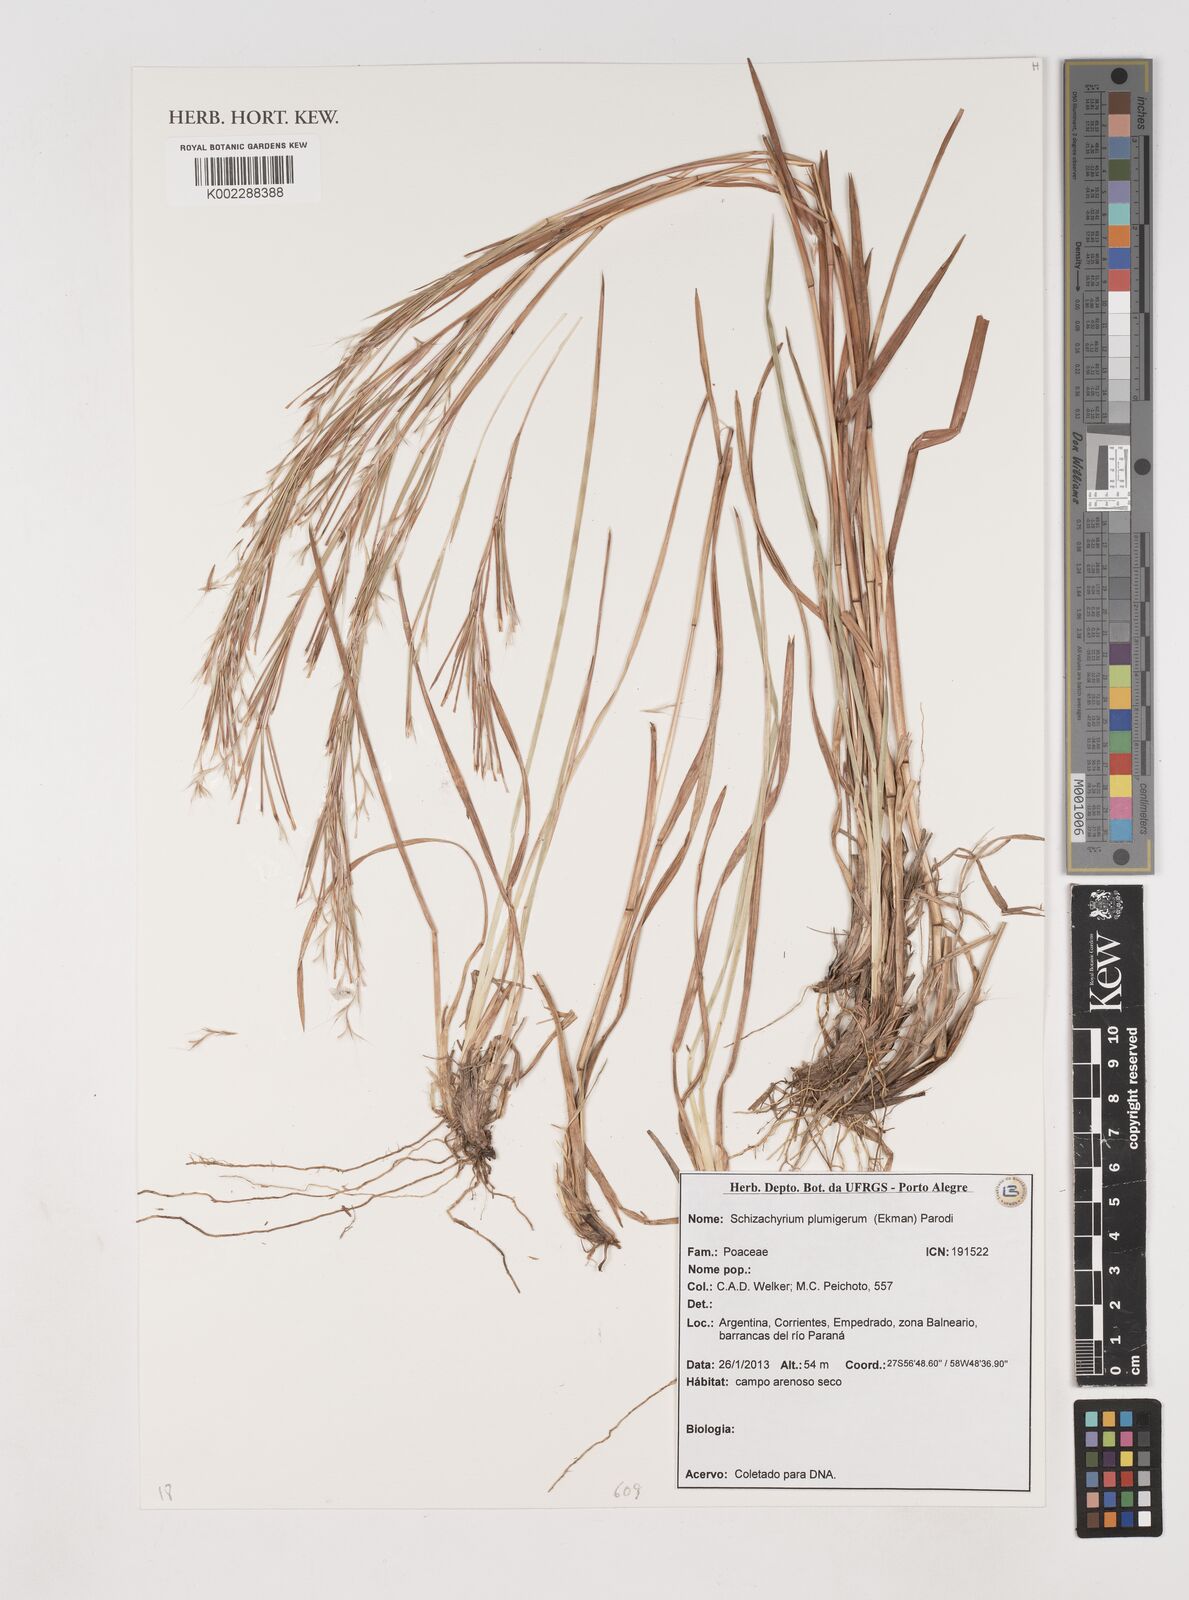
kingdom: Plantae
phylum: Tracheophyta
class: Liliopsida
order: Poales
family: Poaceae
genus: Schizachyrium
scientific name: Schizachyrium spicatum
